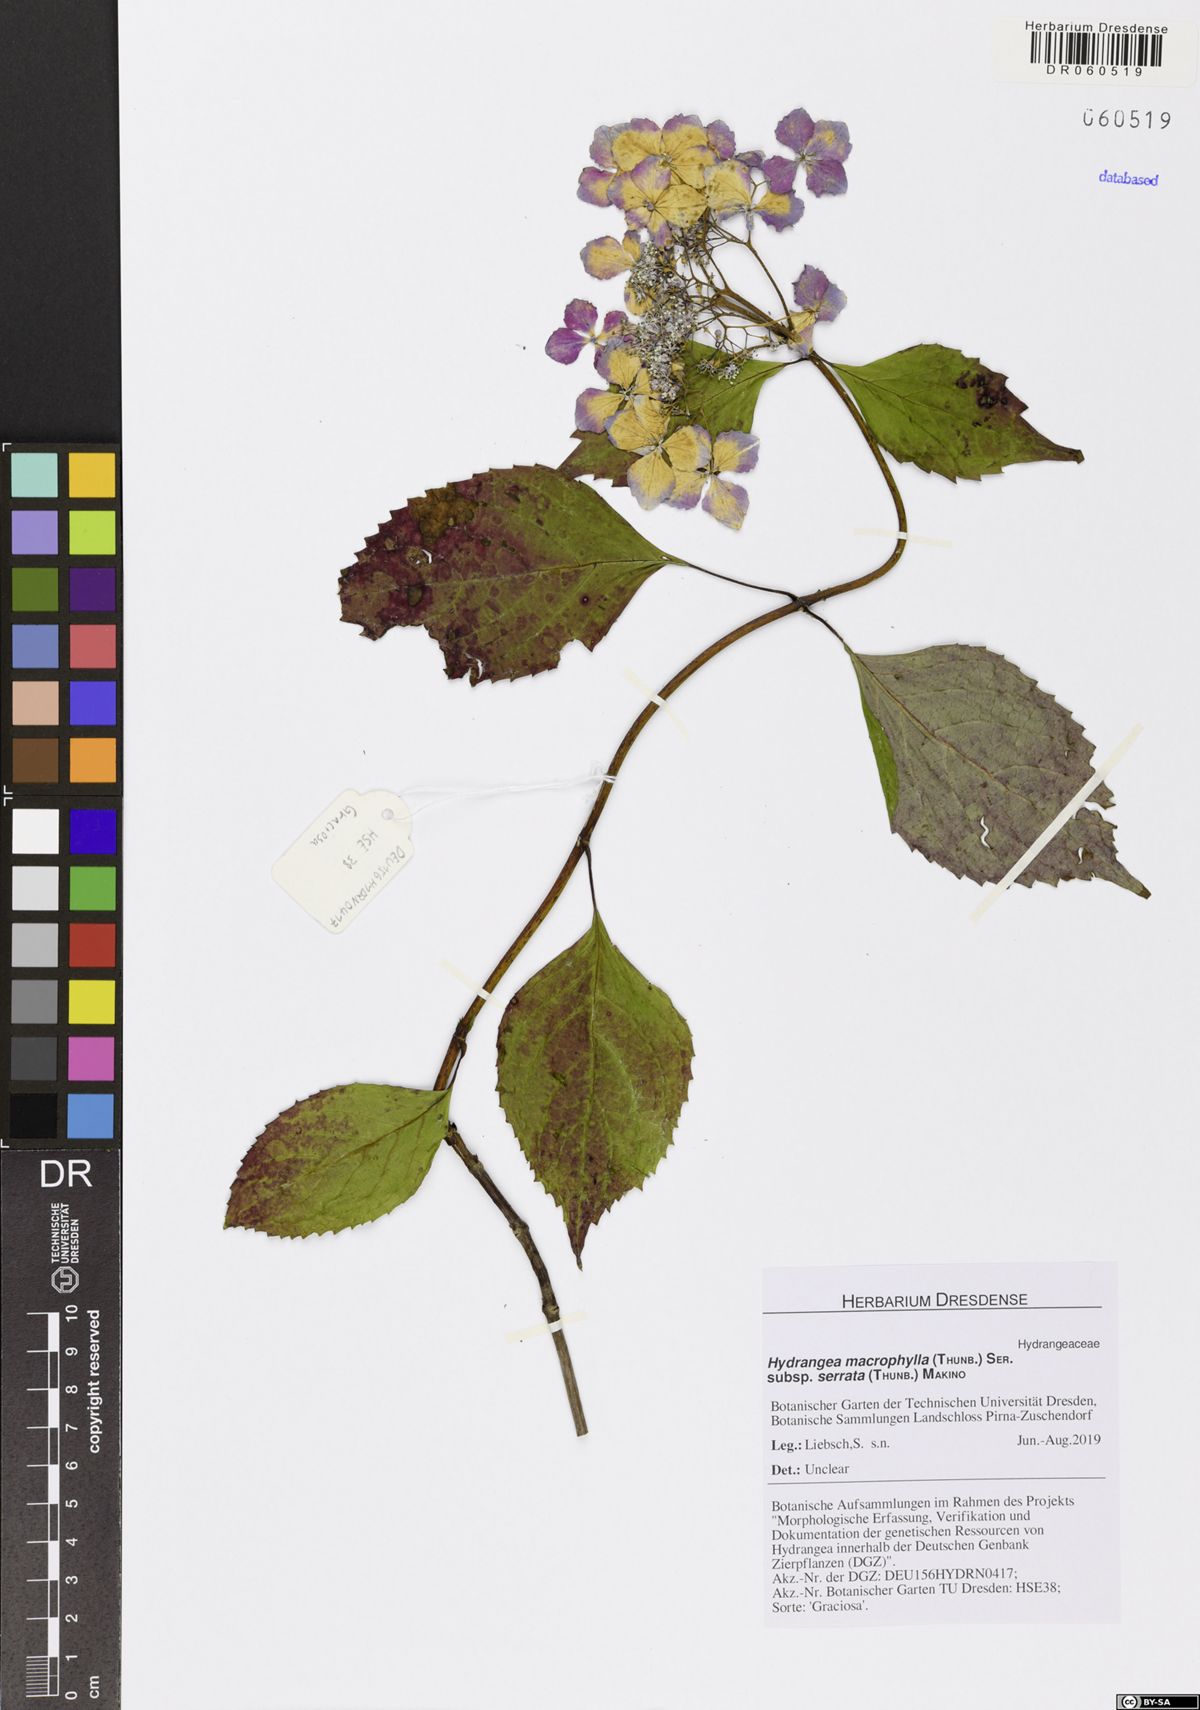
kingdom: Plantae
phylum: Tracheophyta
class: Magnoliopsida
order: Cornales
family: Hydrangeaceae
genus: Hydrangea
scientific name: Hydrangea serrata
